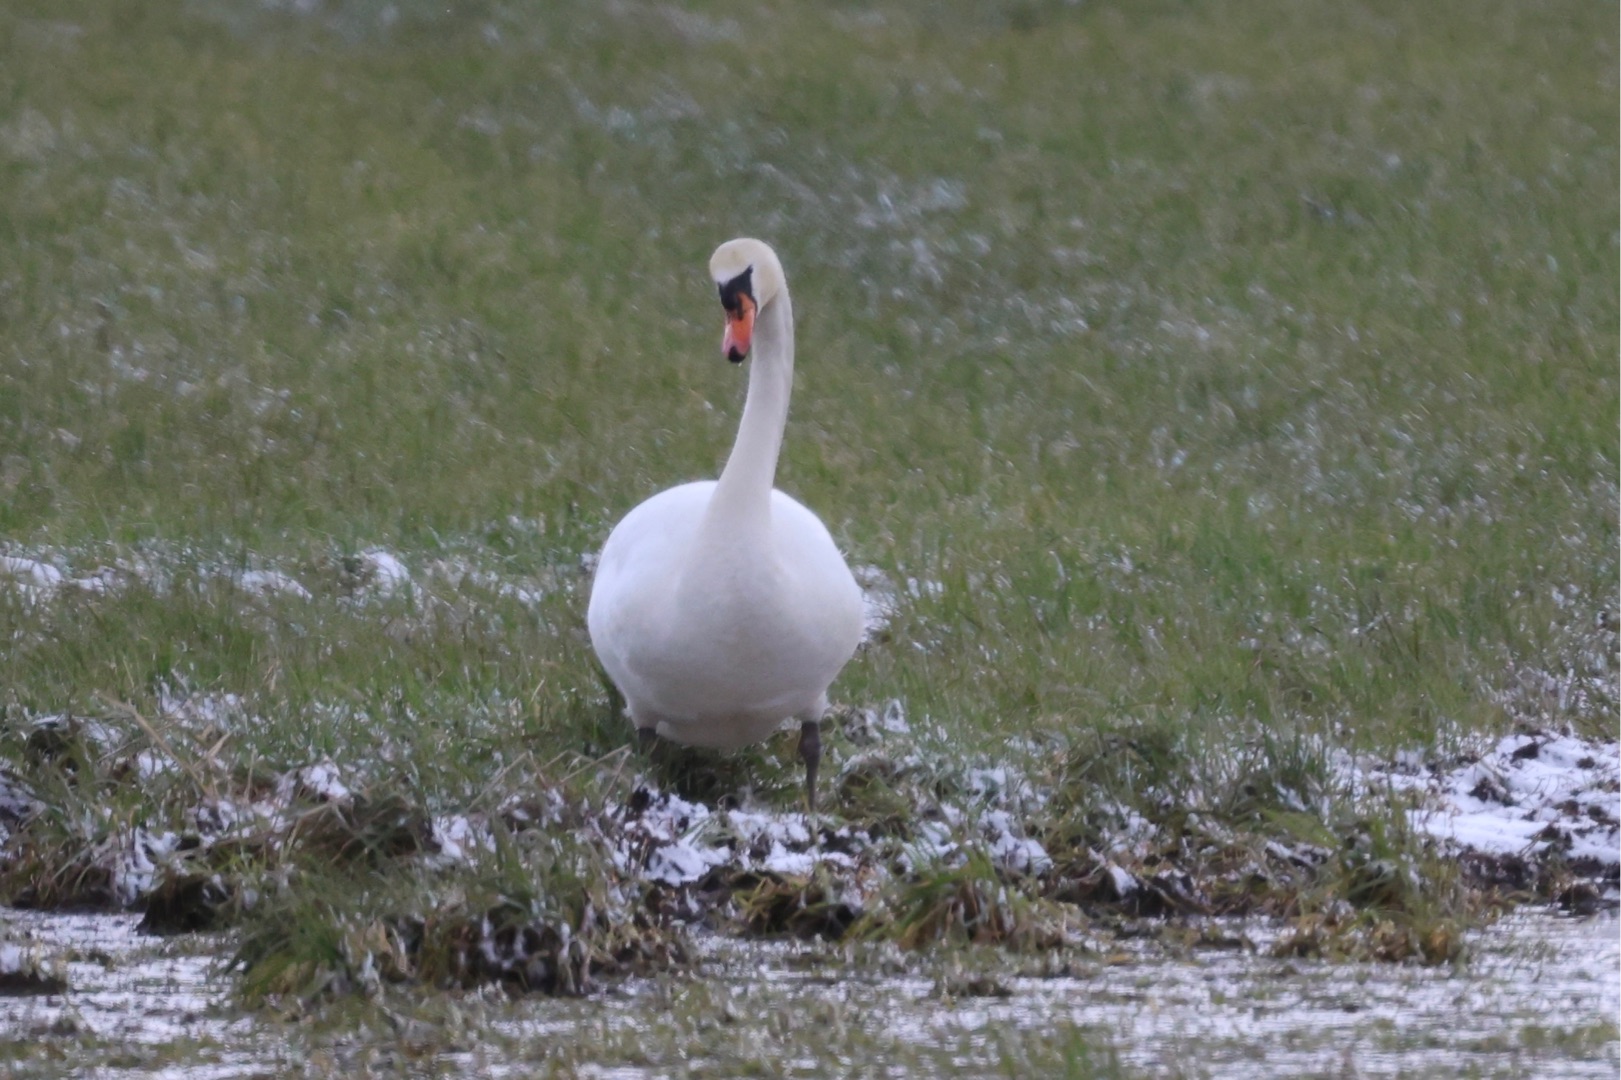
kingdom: Animalia
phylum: Chordata
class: Aves
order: Anseriformes
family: Anatidae
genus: Cygnus
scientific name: Cygnus olor
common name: Knopsvane
